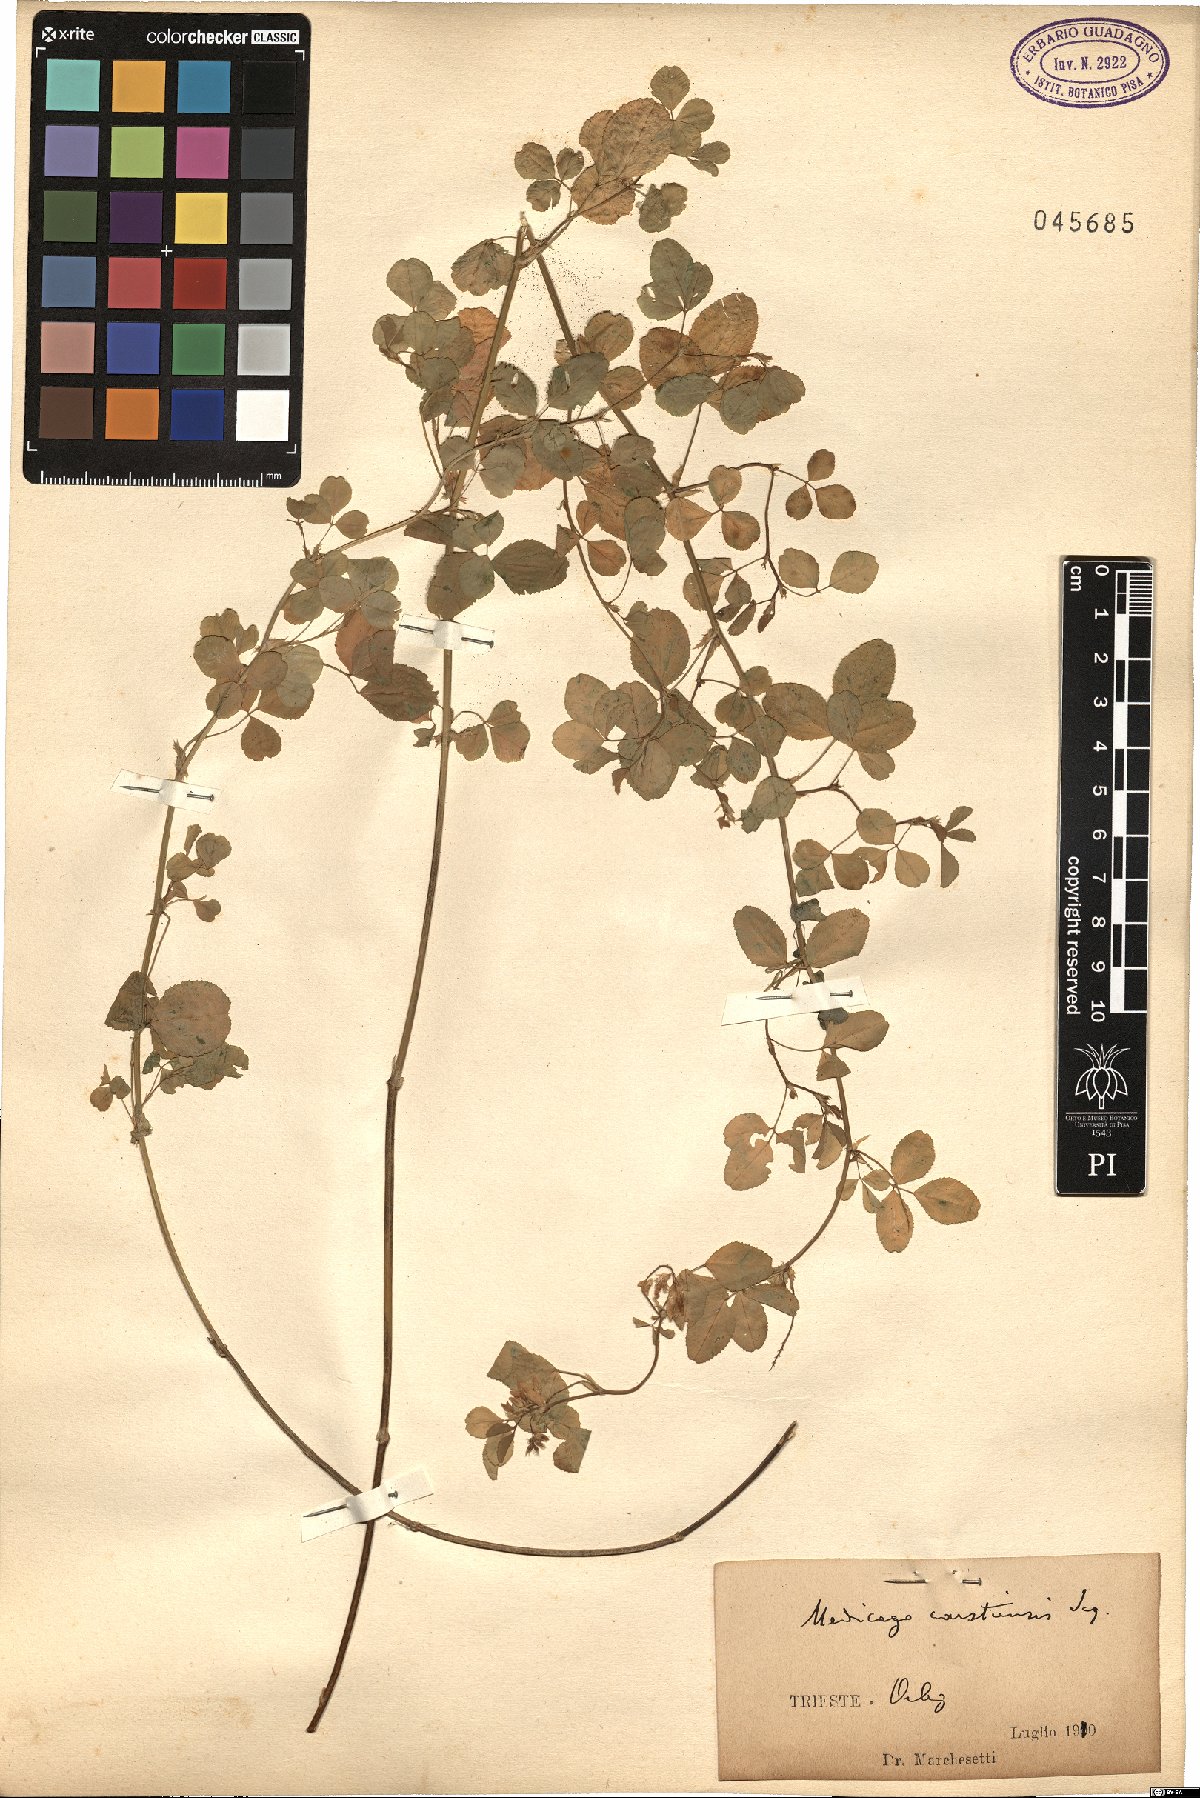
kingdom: Plantae
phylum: Tracheophyta
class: Magnoliopsida
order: Fabales
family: Fabaceae
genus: Medicago
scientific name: Medicago carstiensis
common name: Creeping-rooted medic
